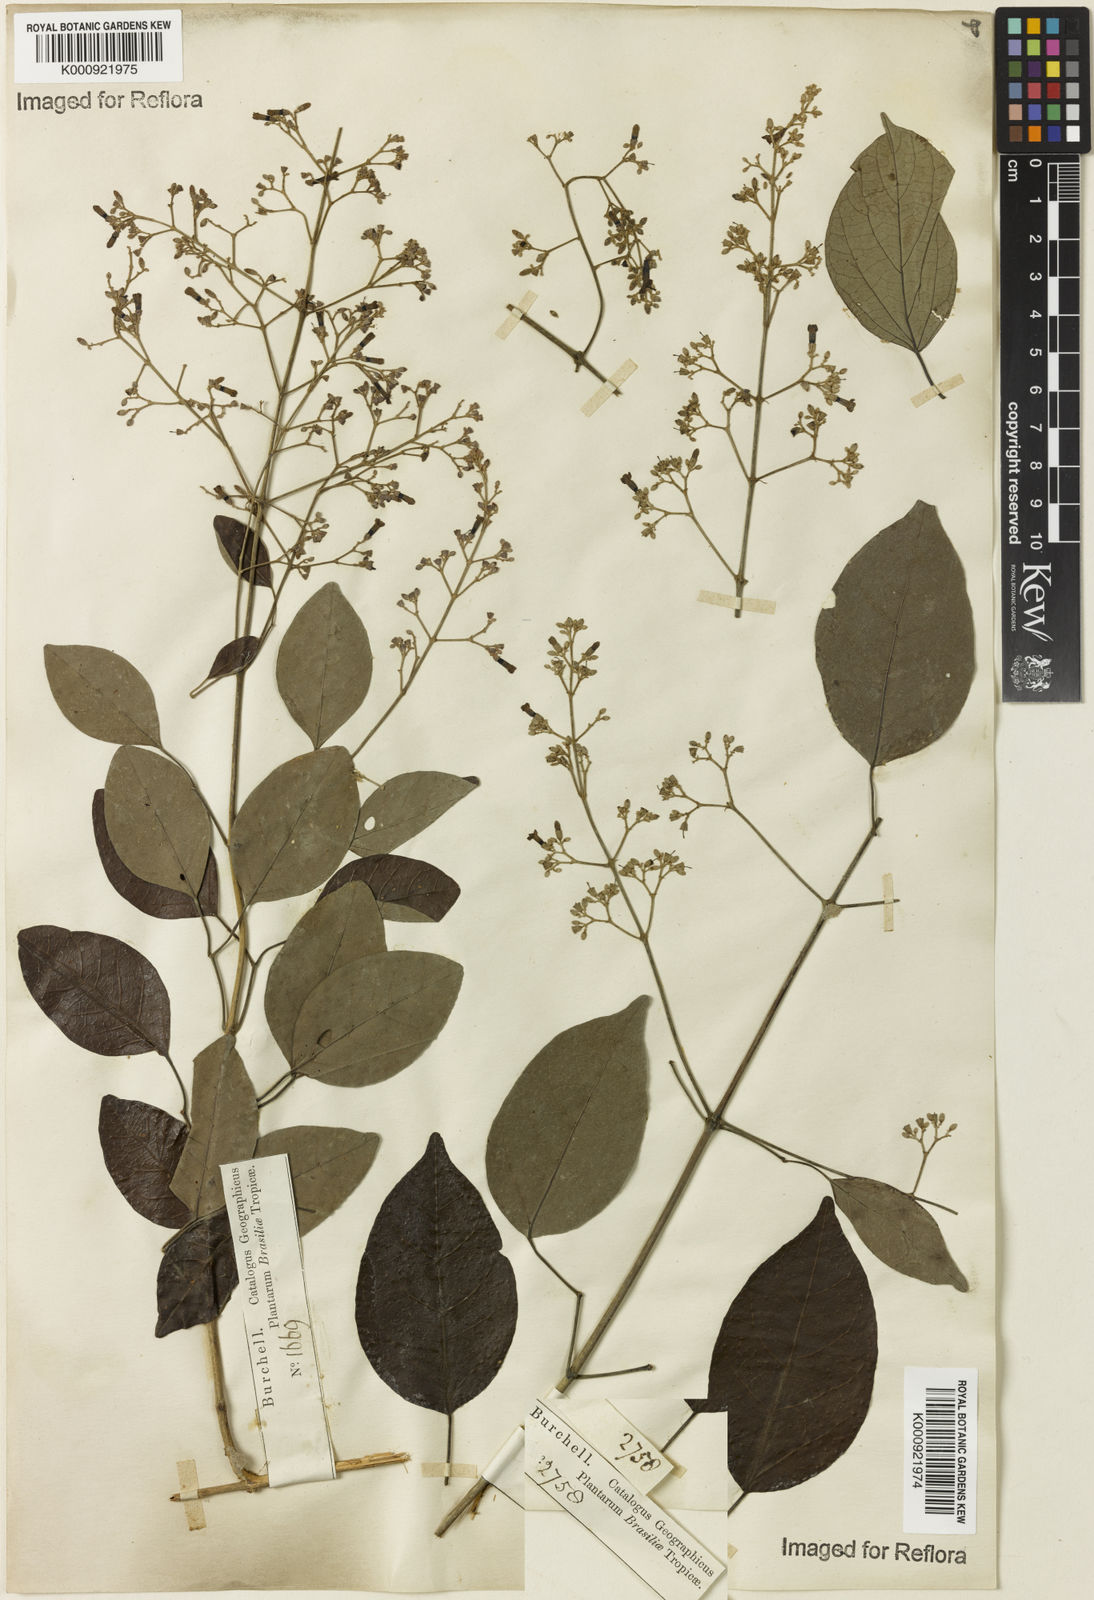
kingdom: Plantae
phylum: Tracheophyta
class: Magnoliopsida
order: Lamiales
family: Bignoniaceae
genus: Fridericia
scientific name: Fridericia rego
